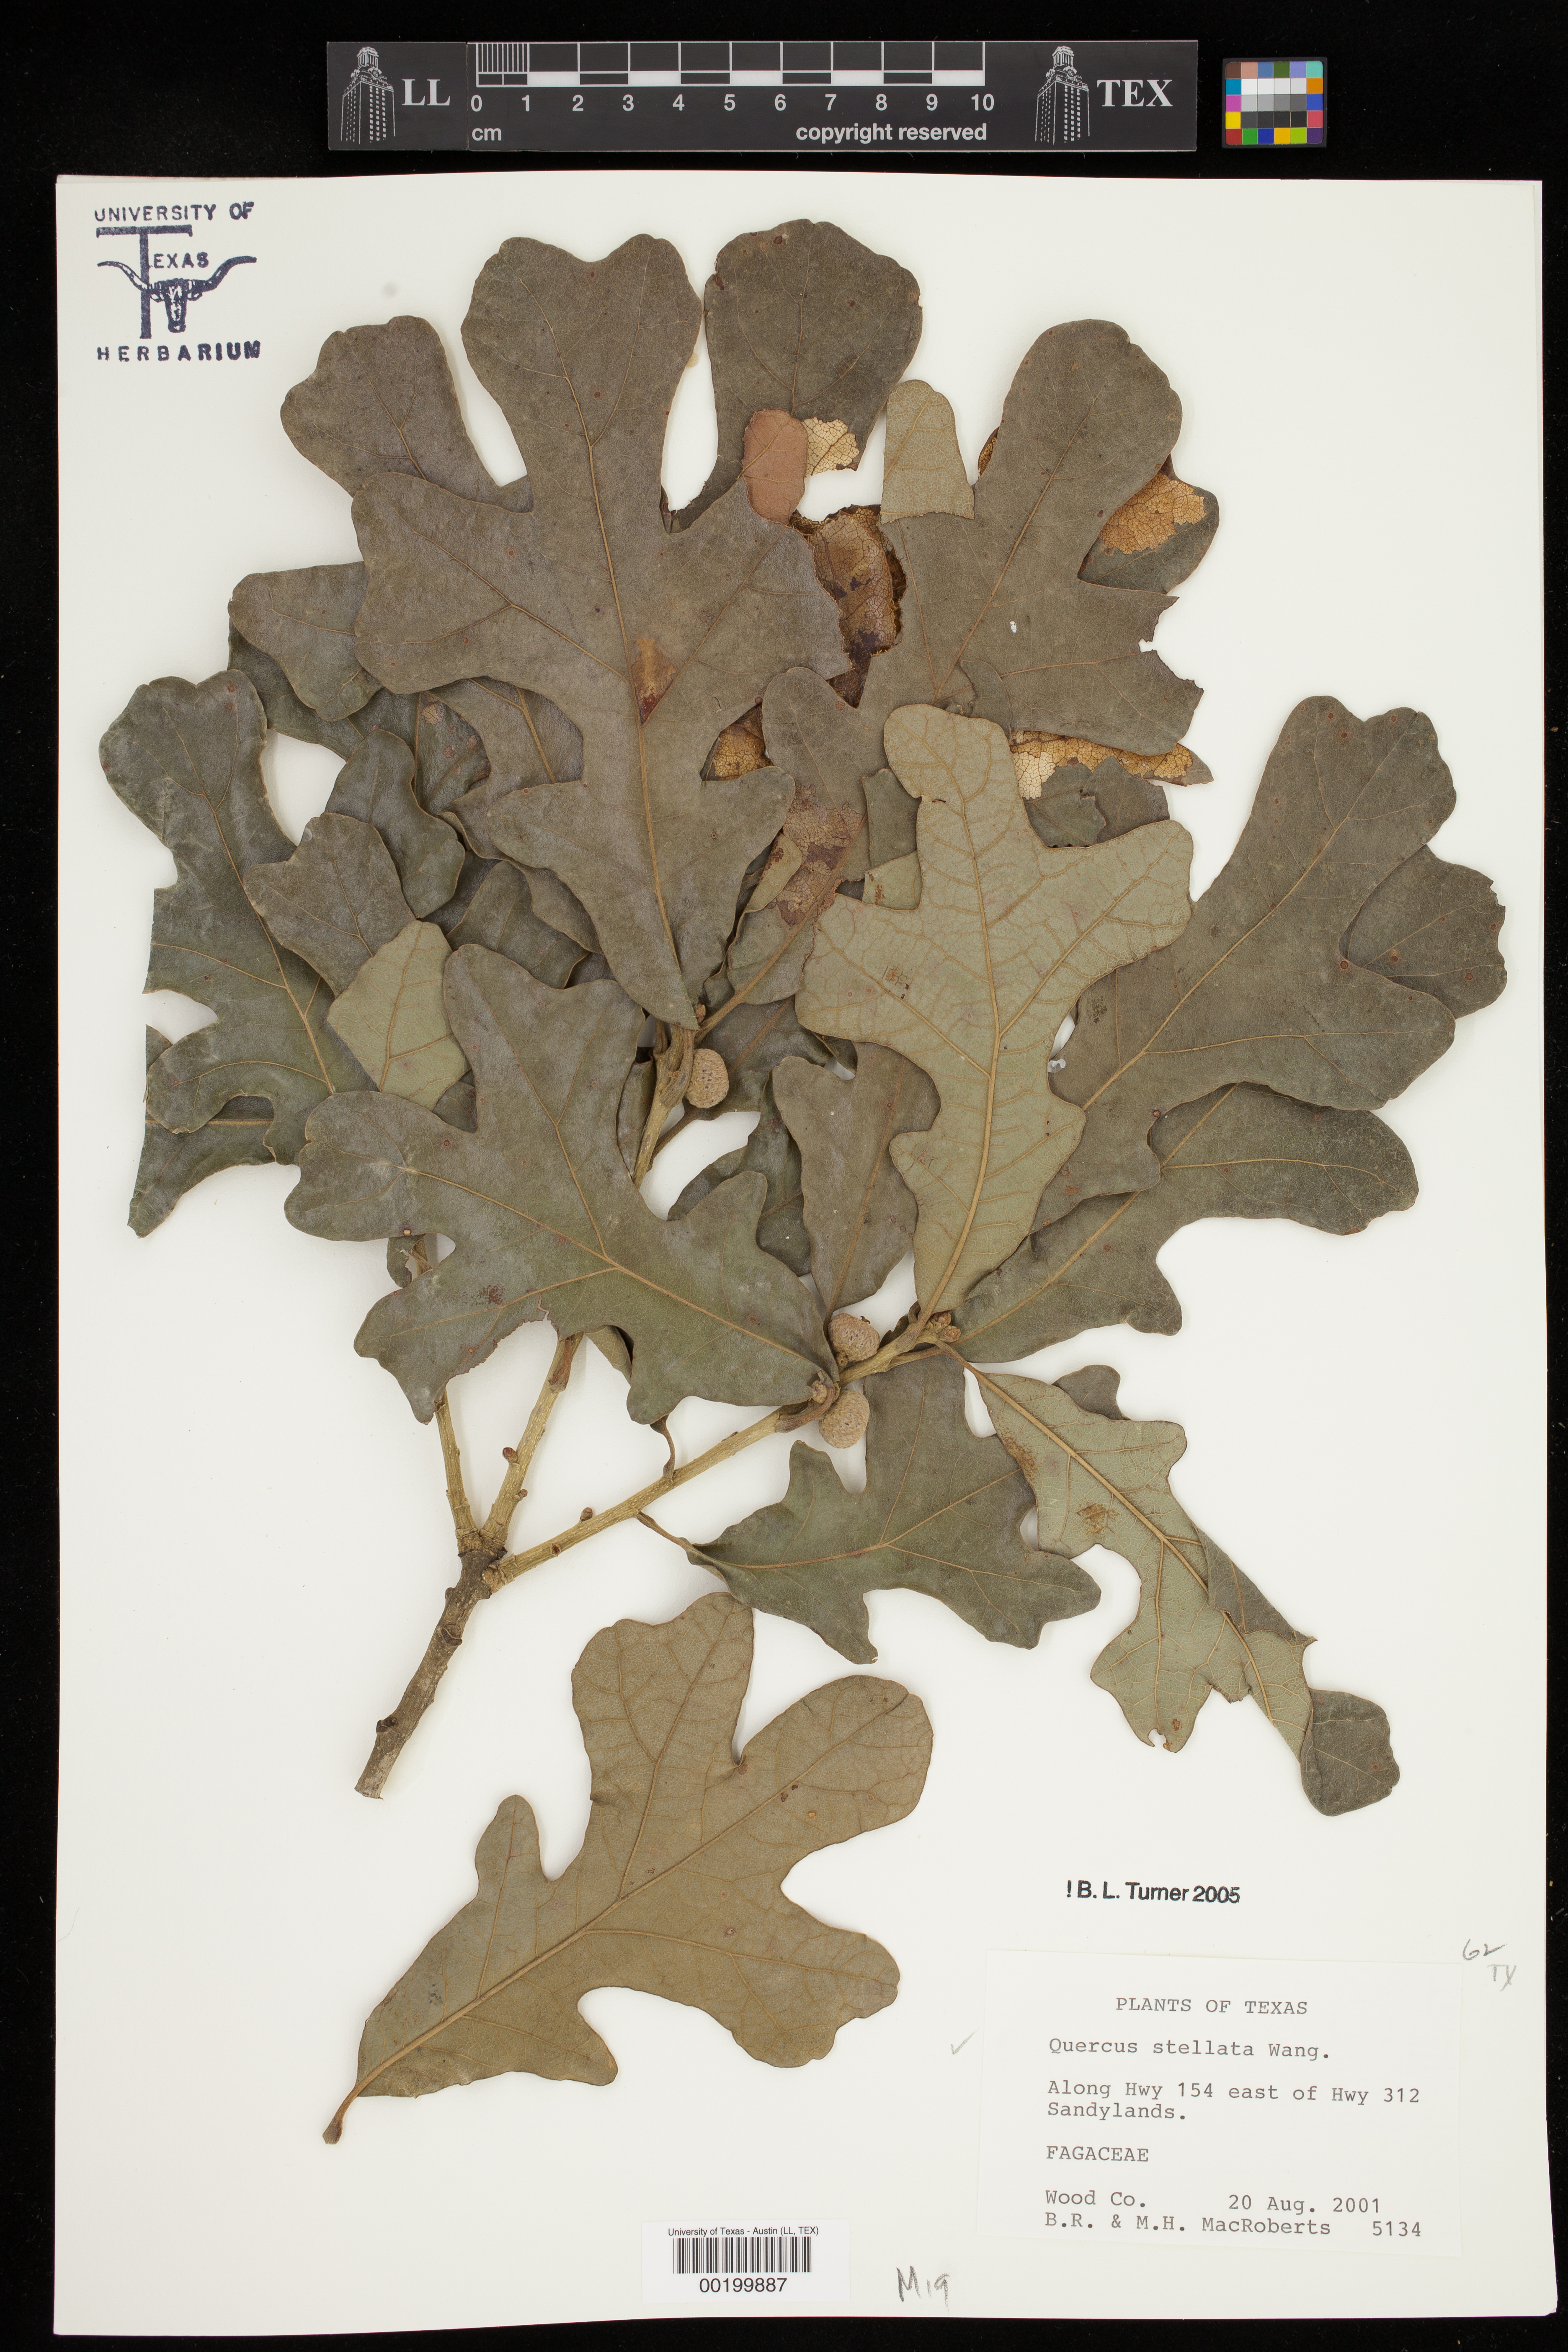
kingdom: Plantae
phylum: Tracheophyta
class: Magnoliopsida
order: Fagales
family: Fagaceae
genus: Quercus
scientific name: Quercus stellata
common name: Post oak
